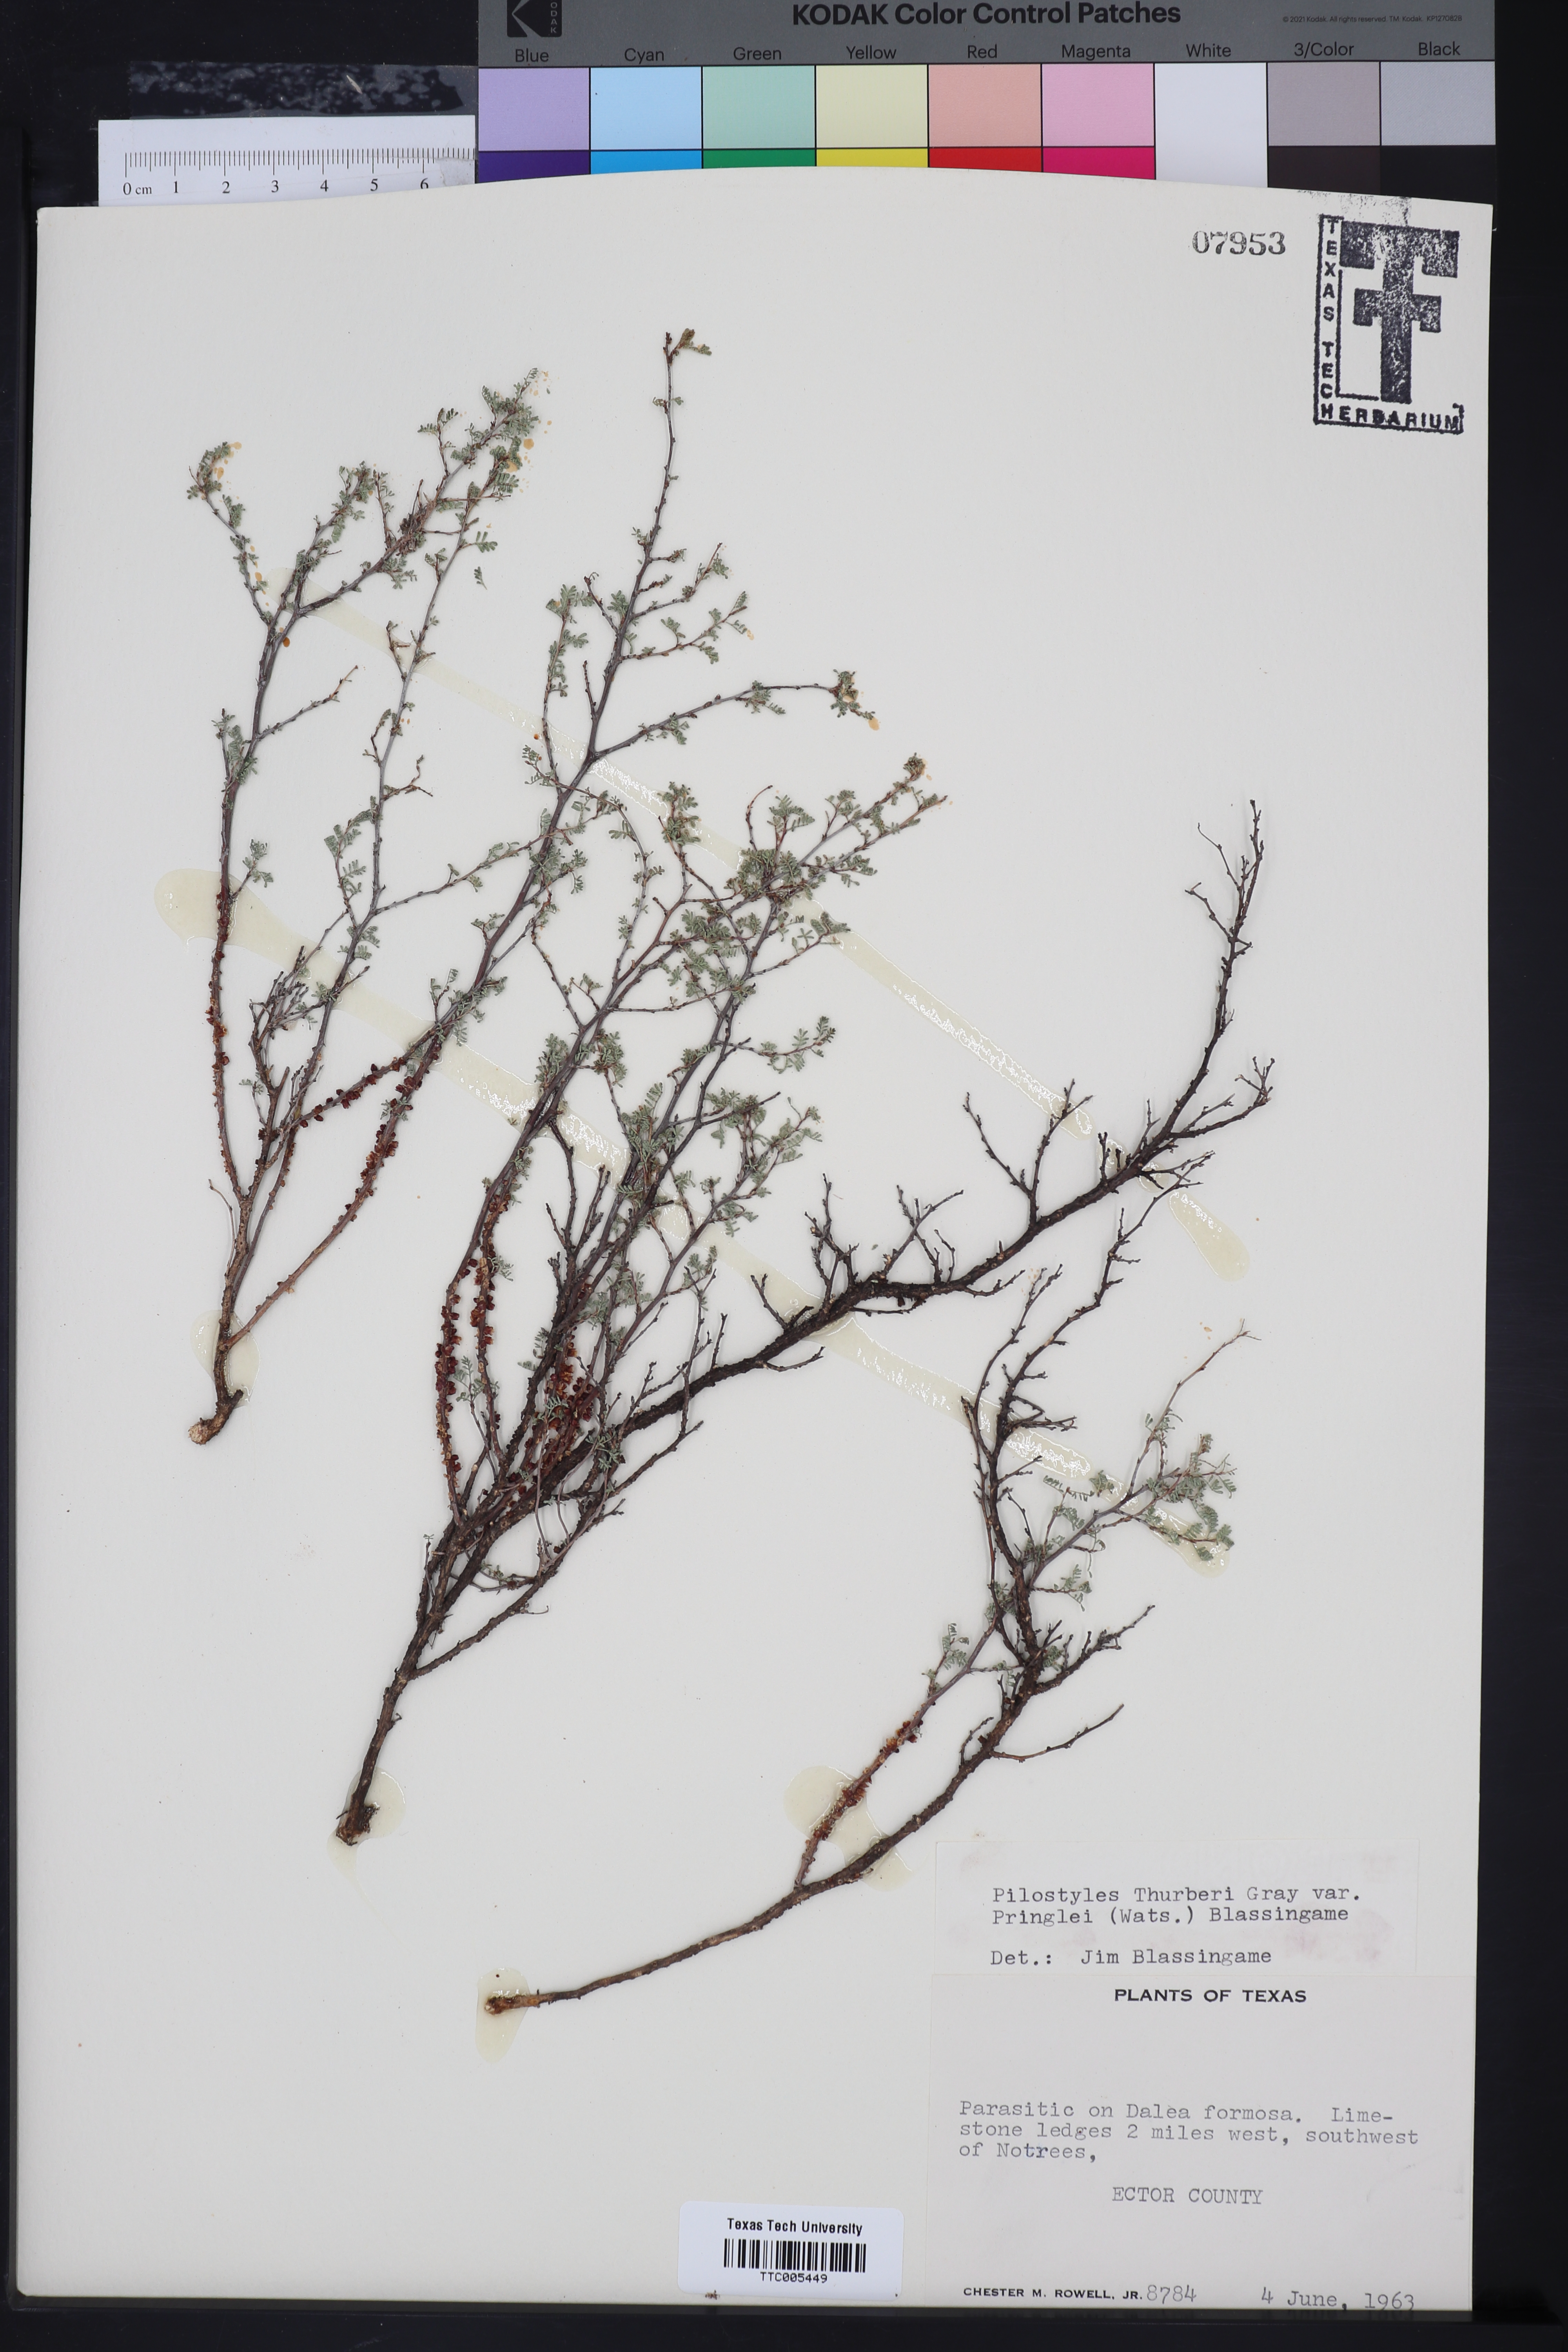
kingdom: Plantae
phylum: Tracheophyta
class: Magnoliopsida
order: Cucurbitales
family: Apodanthaceae
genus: Pilostyles
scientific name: Pilostyles thurberi
